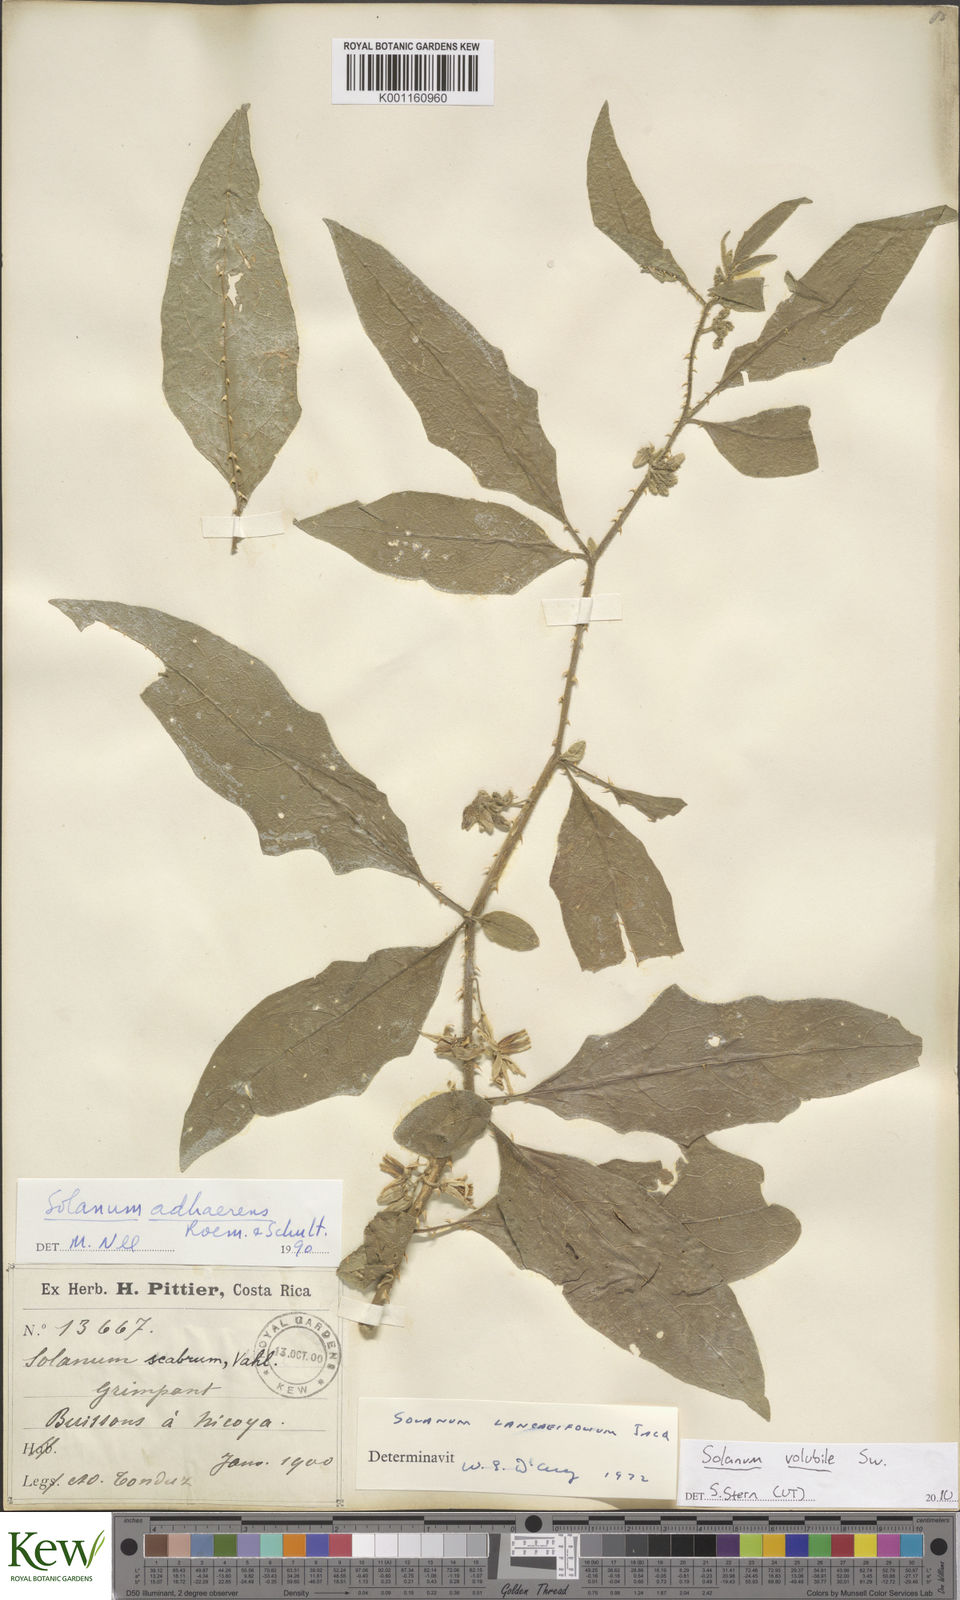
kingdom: Plantae
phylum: Tracheophyta
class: Magnoliopsida
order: Solanales
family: Solanaceae
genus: Solanum
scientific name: Solanum volubile
